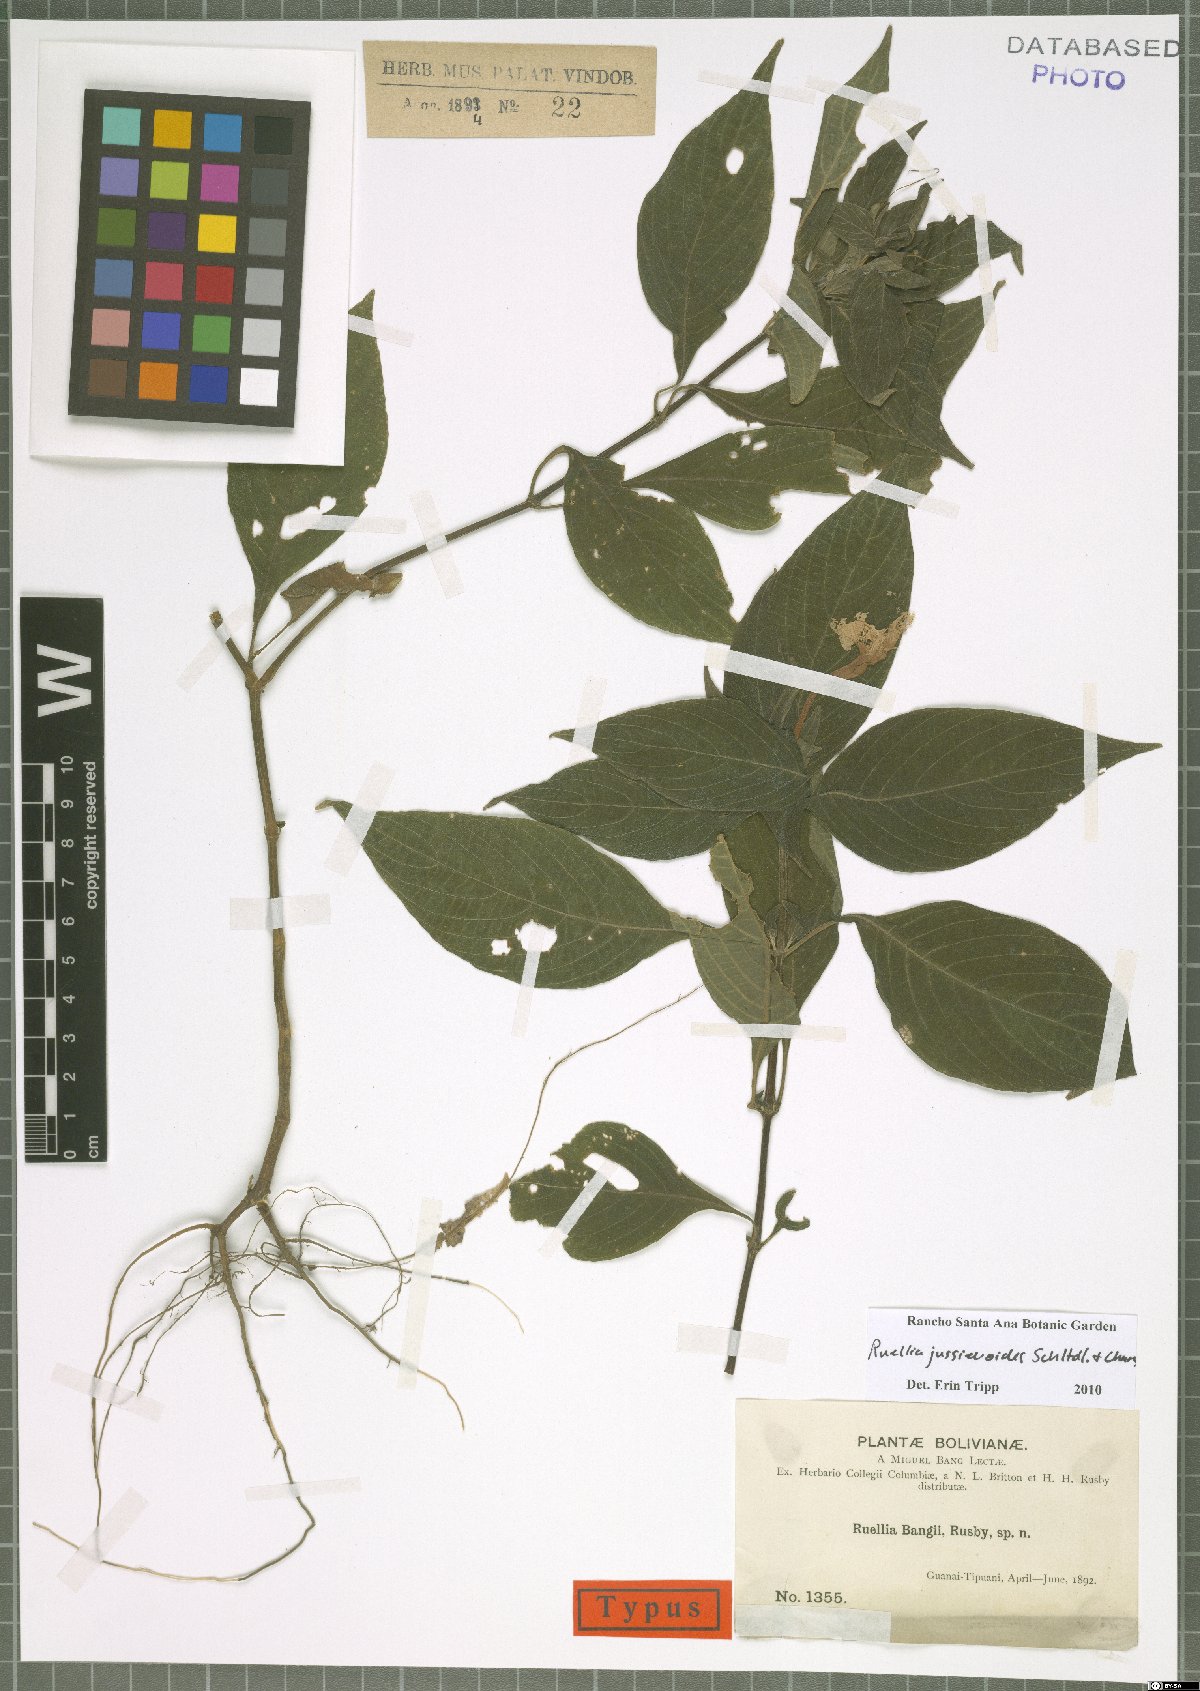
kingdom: Plantae
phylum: Tracheophyta
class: Magnoliopsida
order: Lamiales
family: Acanthaceae
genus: Ruellia
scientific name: Ruellia jussieuoides
